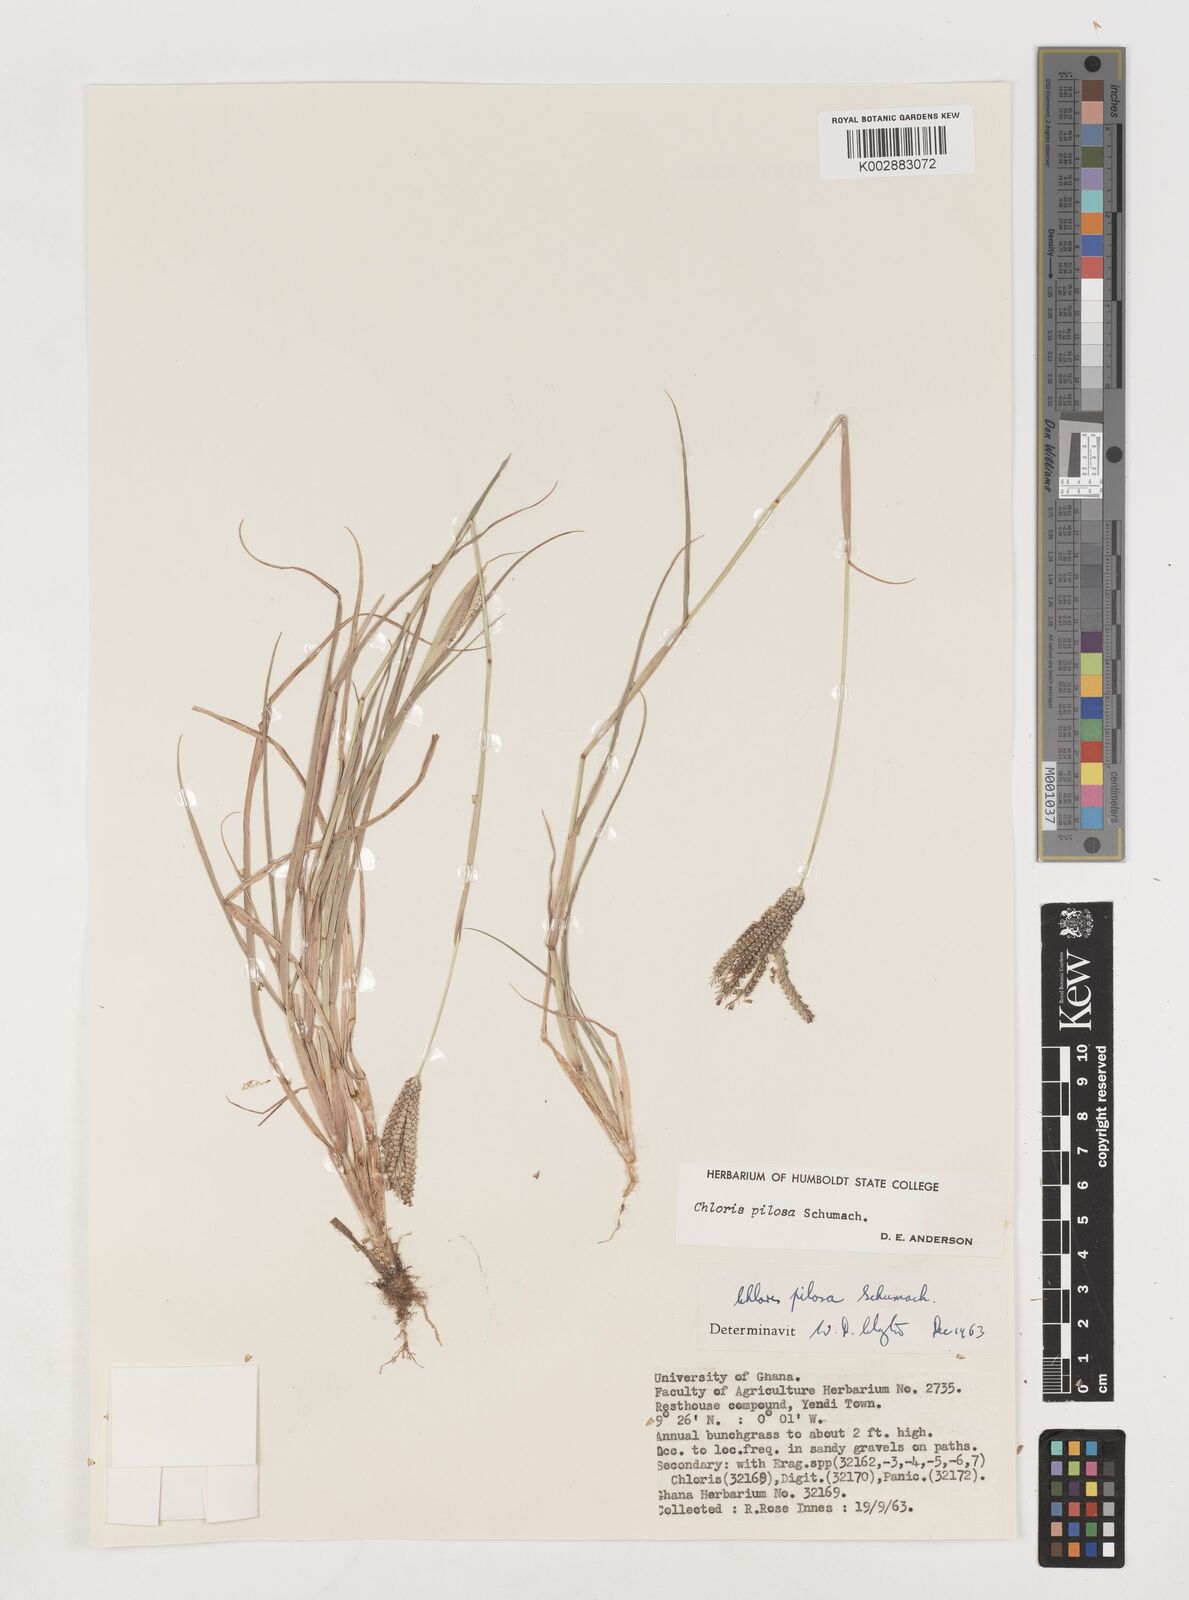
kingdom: Plantae
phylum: Tracheophyta
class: Liliopsida
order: Poales
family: Poaceae
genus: Chloris
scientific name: Chloris pilosa
